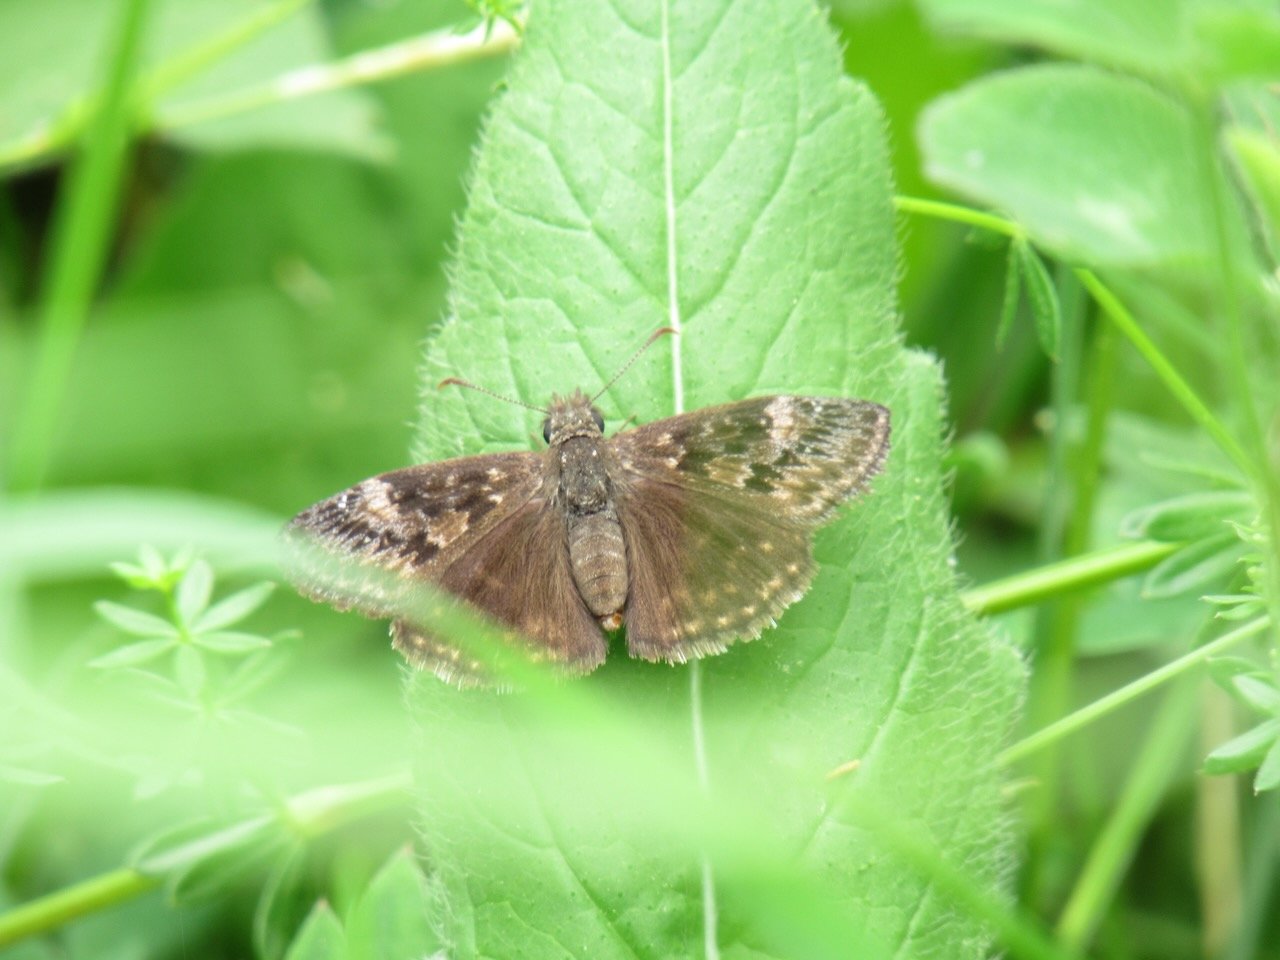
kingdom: Animalia
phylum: Arthropoda
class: Insecta
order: Lepidoptera
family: Hesperiidae
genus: Gesta
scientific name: Gesta
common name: Wild Indigo Duskywing
